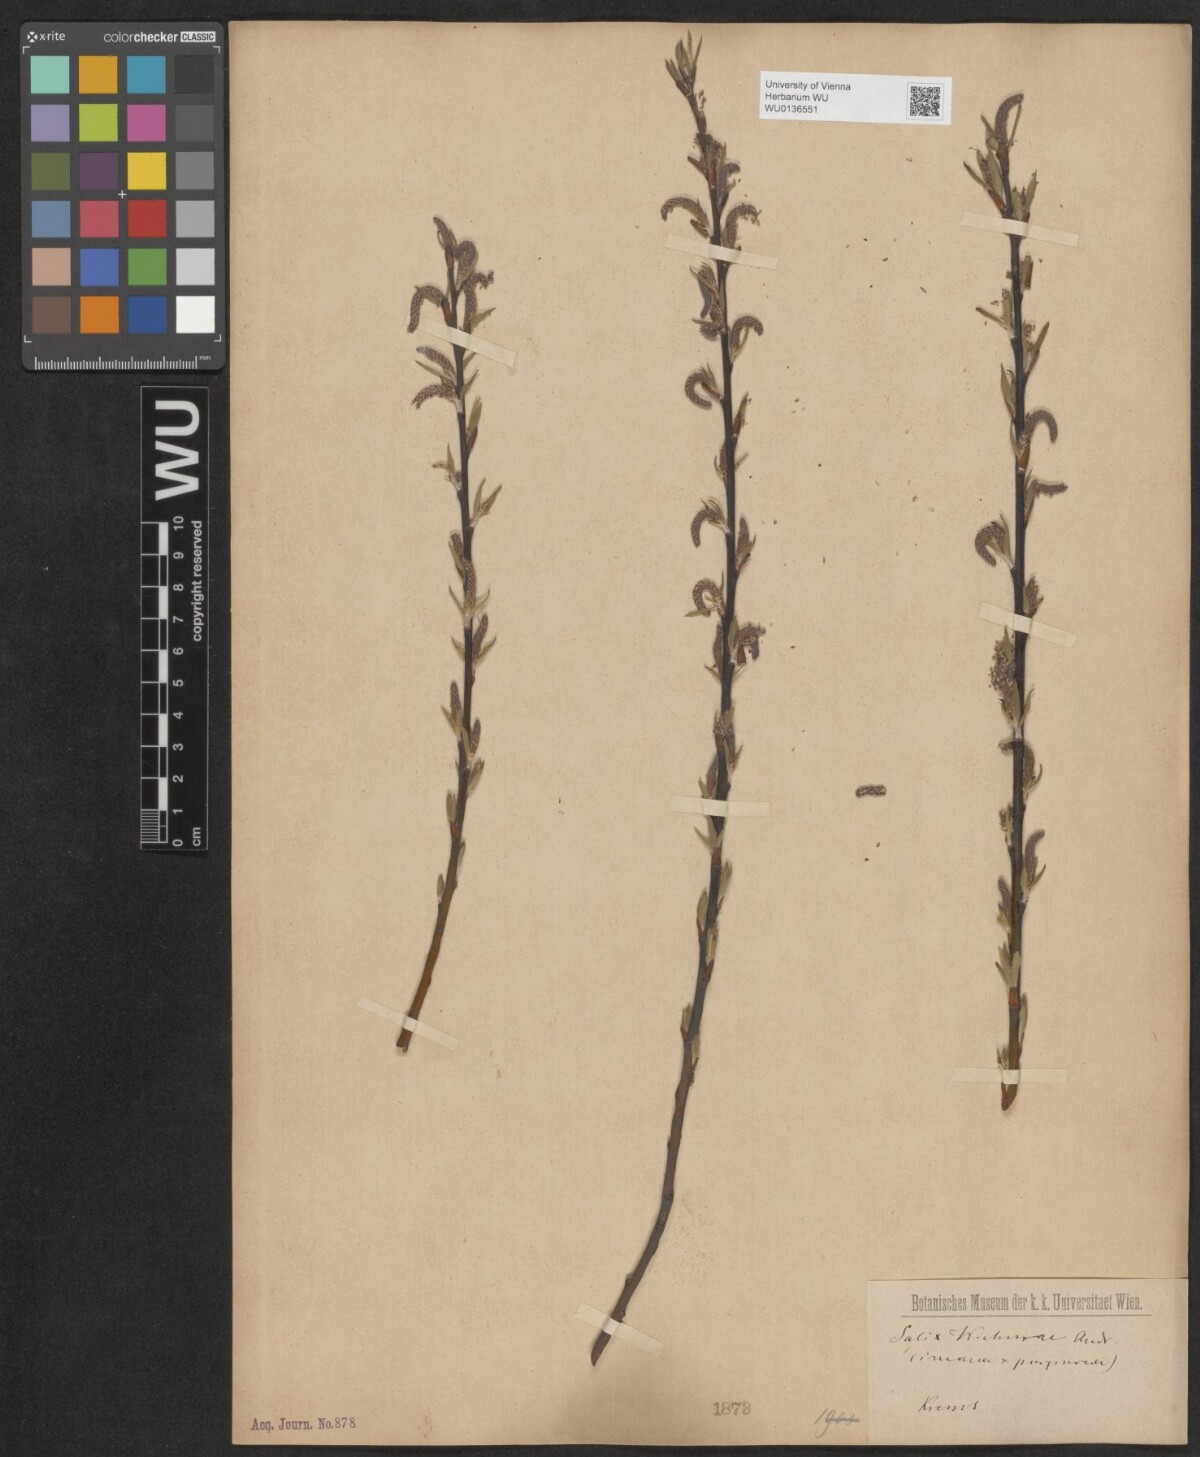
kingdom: Plantae
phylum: Tracheophyta
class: Magnoliopsida
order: Malpighiales
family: Salicaceae
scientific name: Salicaceae
